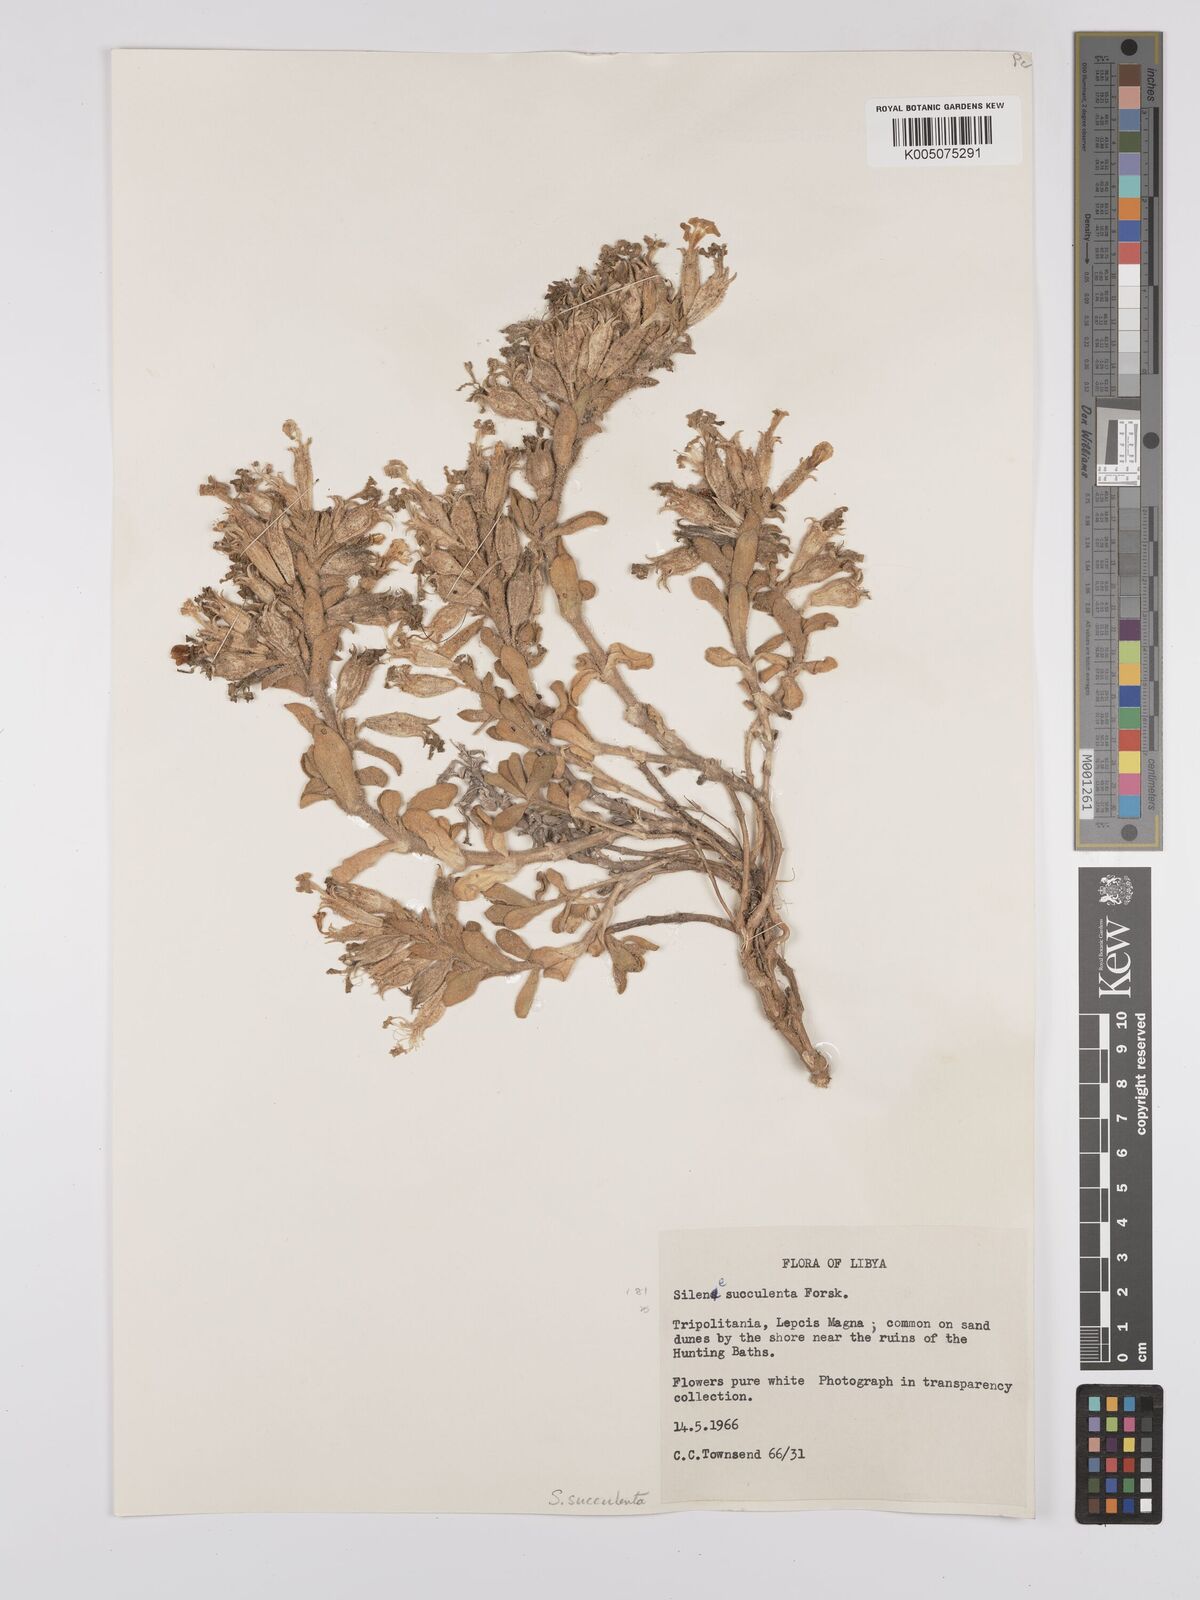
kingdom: Plantae
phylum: Tracheophyta
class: Magnoliopsida
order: Caryophyllales
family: Caryophyllaceae
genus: Silene
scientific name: Silene succulenta
